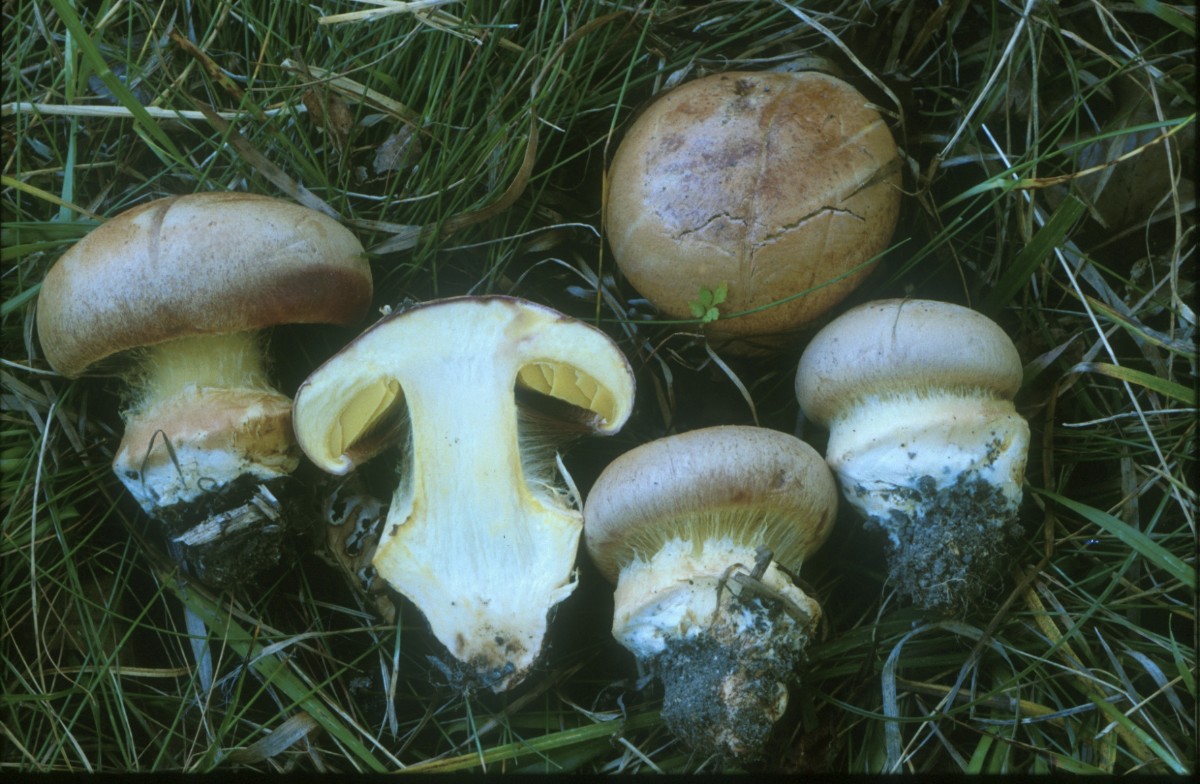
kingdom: Fungi
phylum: Basidiomycota
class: Agaricomycetes
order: Agaricales
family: Cortinariaceae
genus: Calonarius
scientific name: Calonarius xanthophyllus
